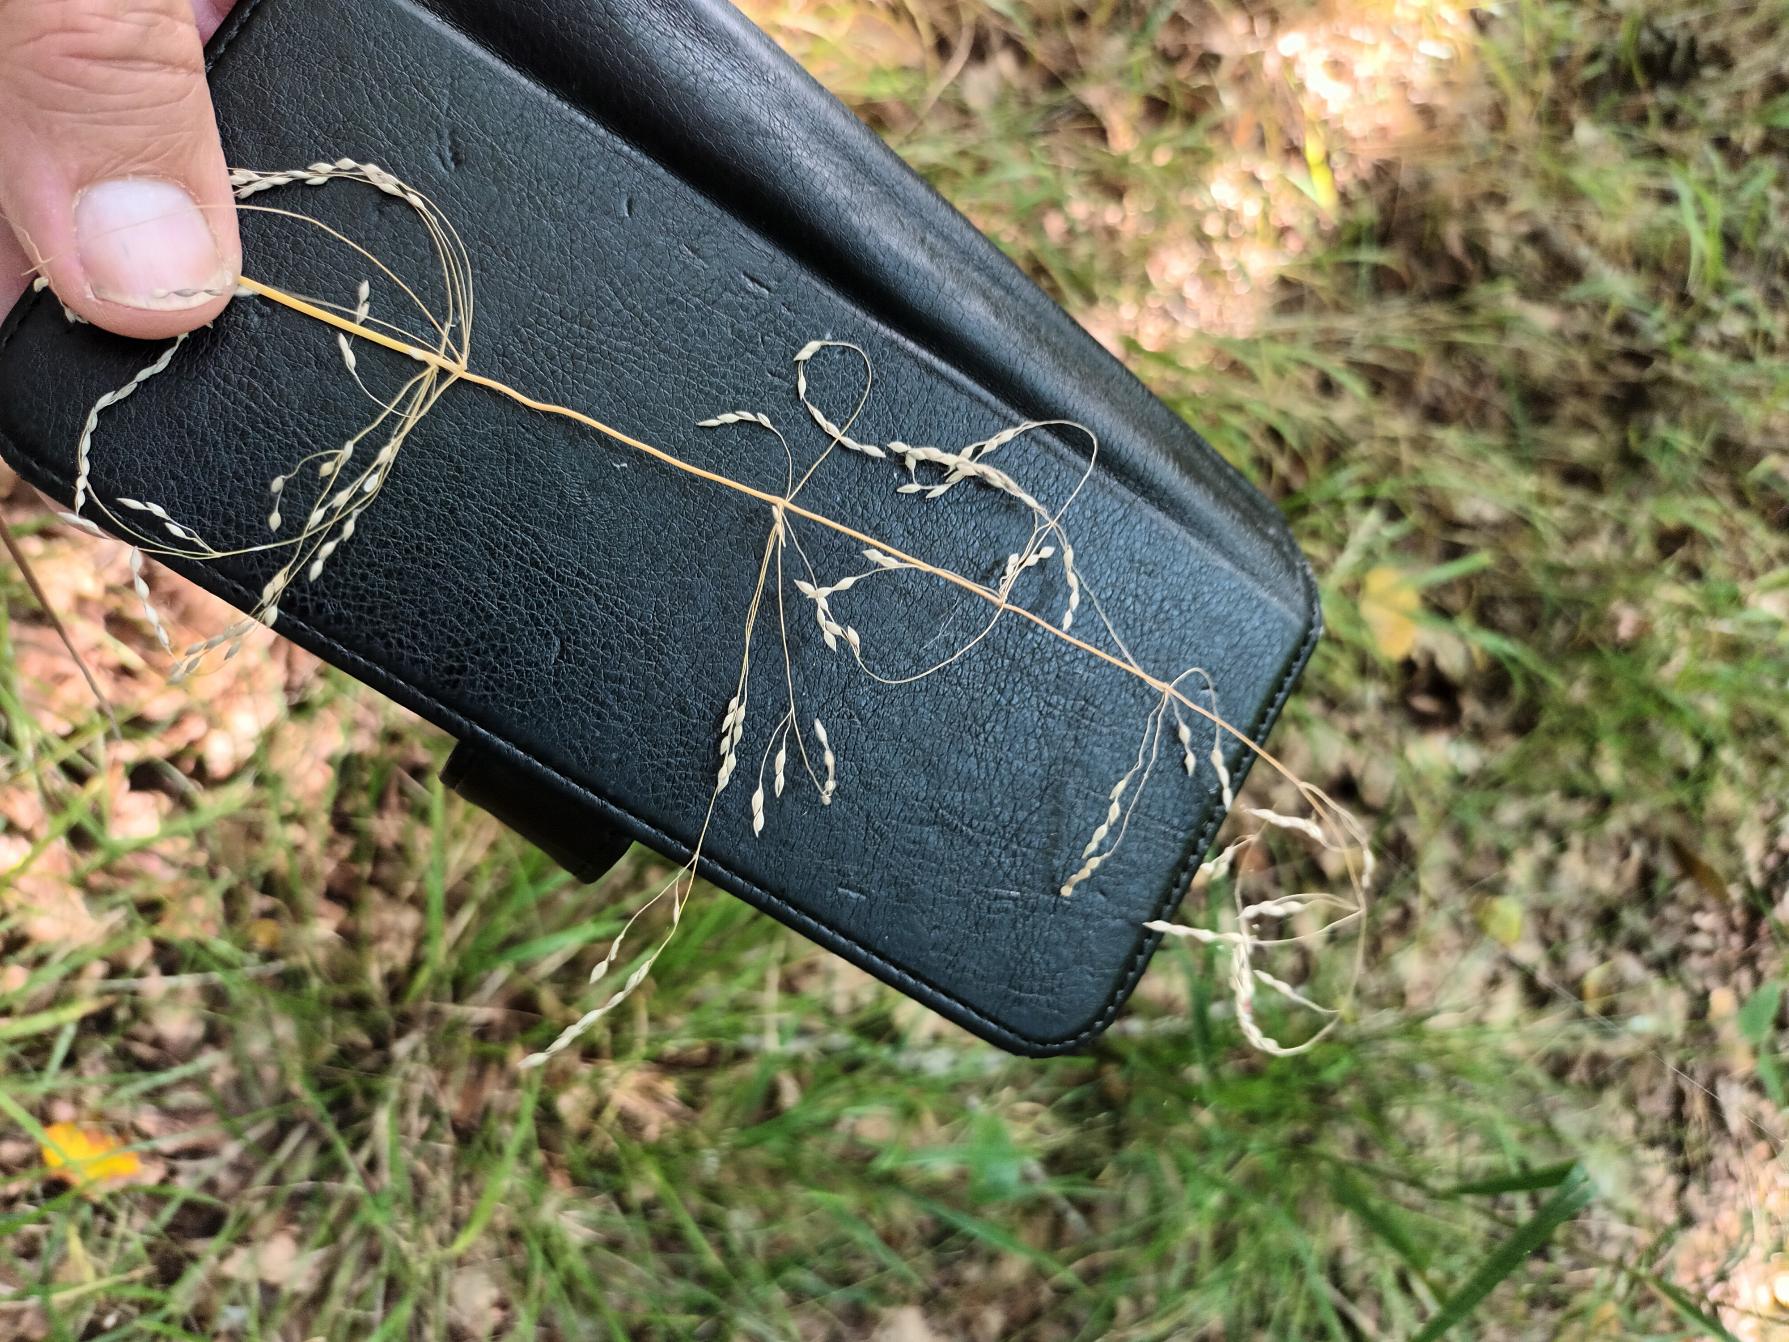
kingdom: Plantae
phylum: Tracheophyta
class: Liliopsida
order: Poales
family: Poaceae
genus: Milium
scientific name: Milium effusum
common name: Miliegræs
